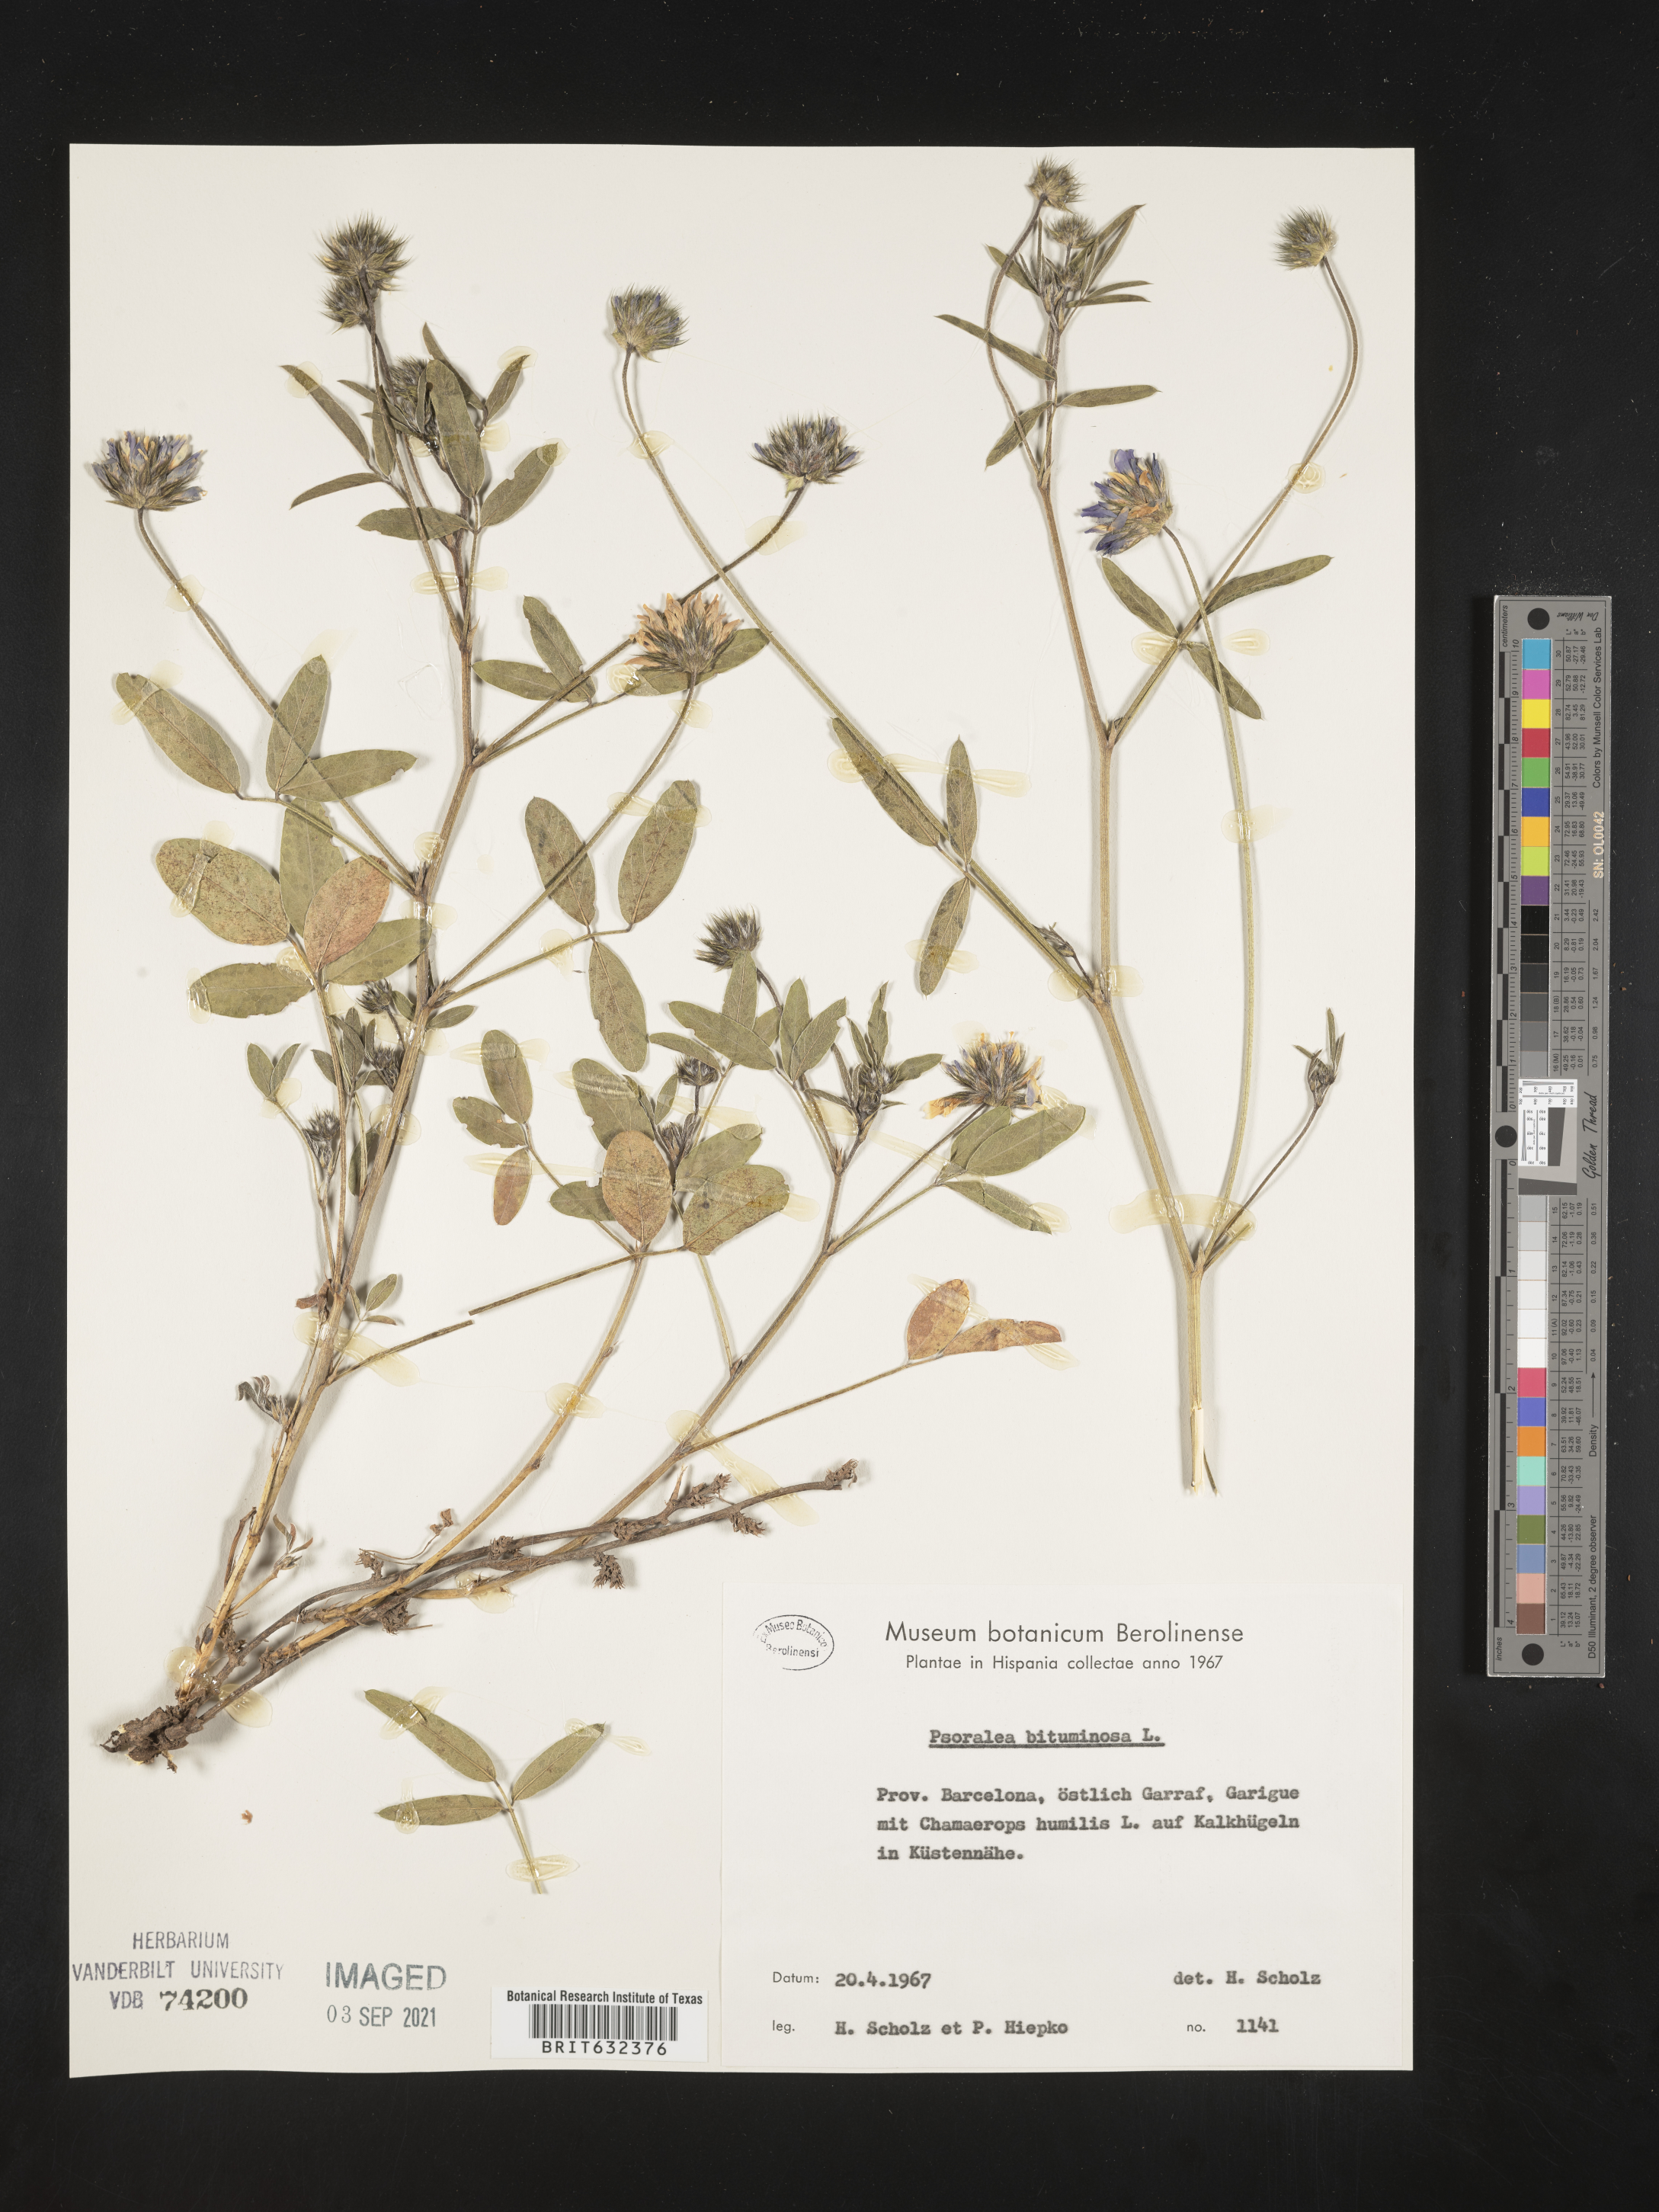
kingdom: Plantae
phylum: Tracheophyta
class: Magnoliopsida
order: Fabales
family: Fabaceae
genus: Psoralea
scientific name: Psoralea
